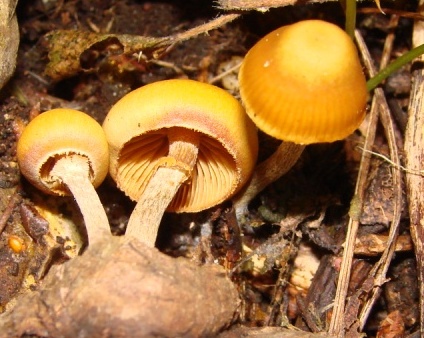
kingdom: Fungi
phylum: Basidiomycota
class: Agaricomycetes
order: Agaricales
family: Hymenogastraceae
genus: Galerina
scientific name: Galerina marginata
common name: randbæltet hjelmhat
